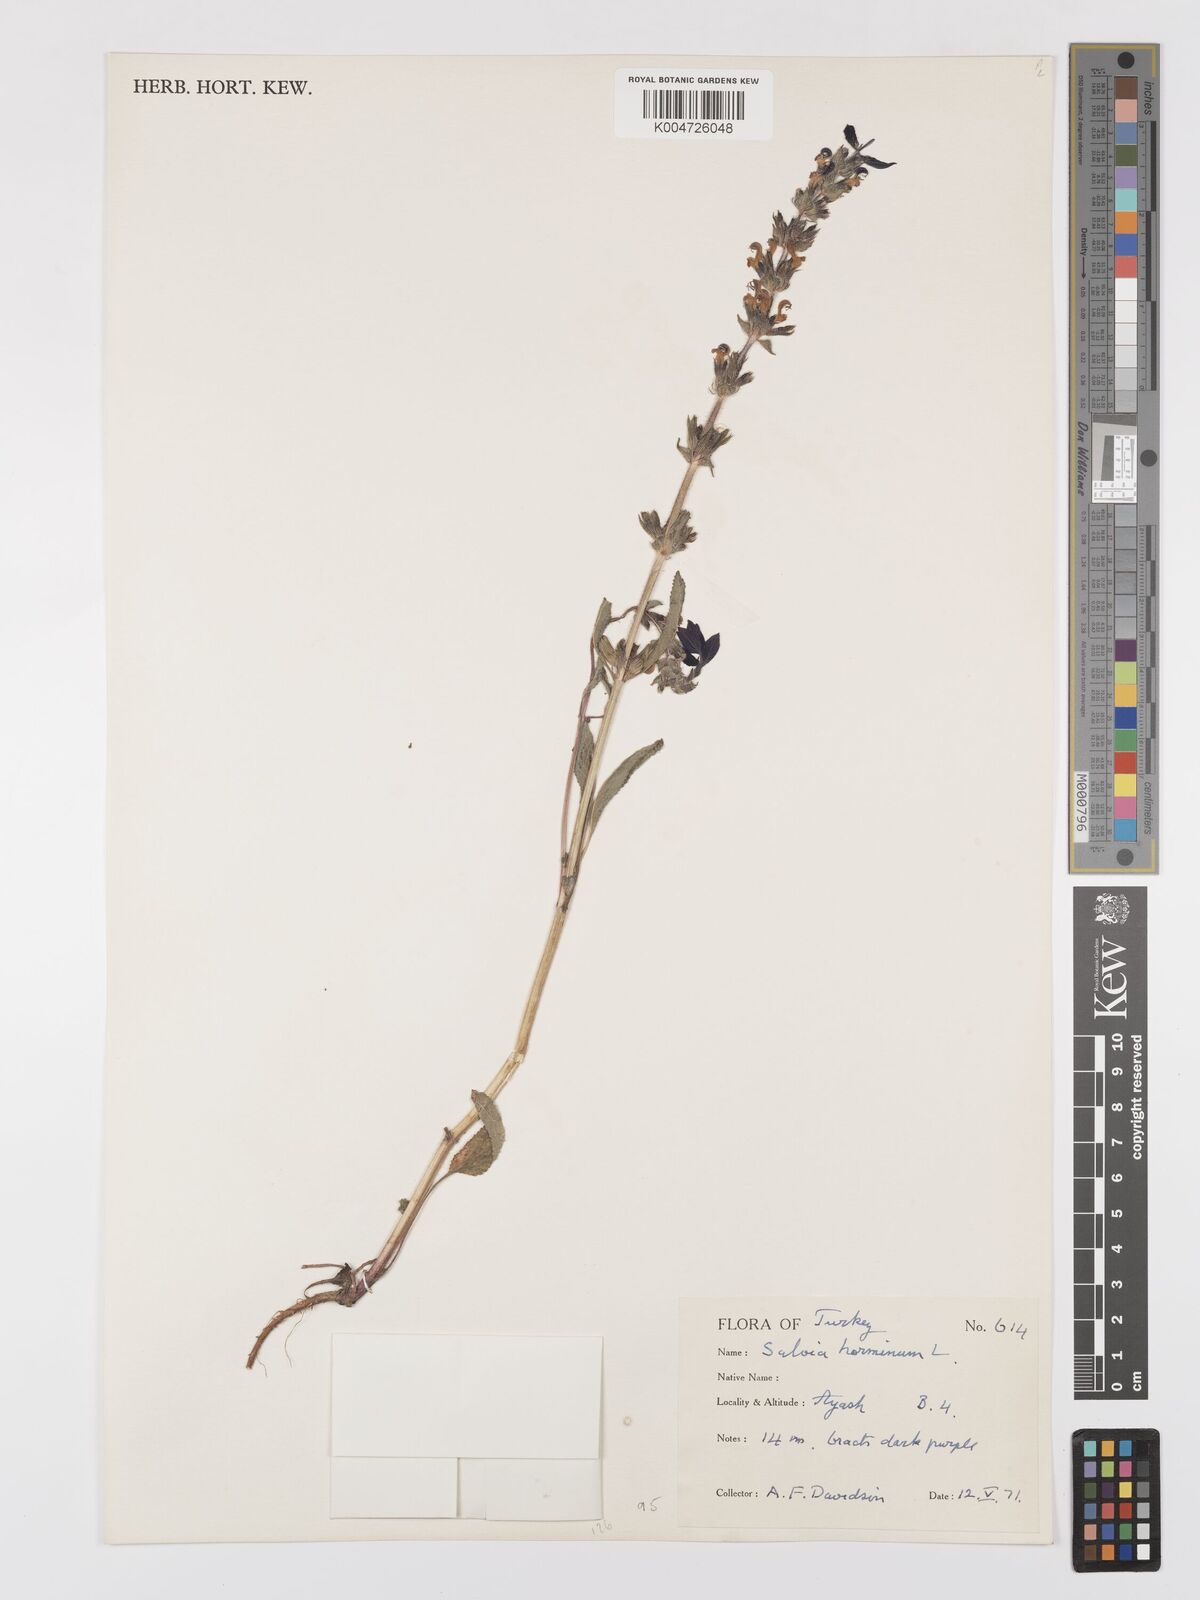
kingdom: Plantae
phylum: Tracheophyta
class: Magnoliopsida
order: Lamiales
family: Lamiaceae
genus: Salvia
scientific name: Salvia viridis
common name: Annual clary
